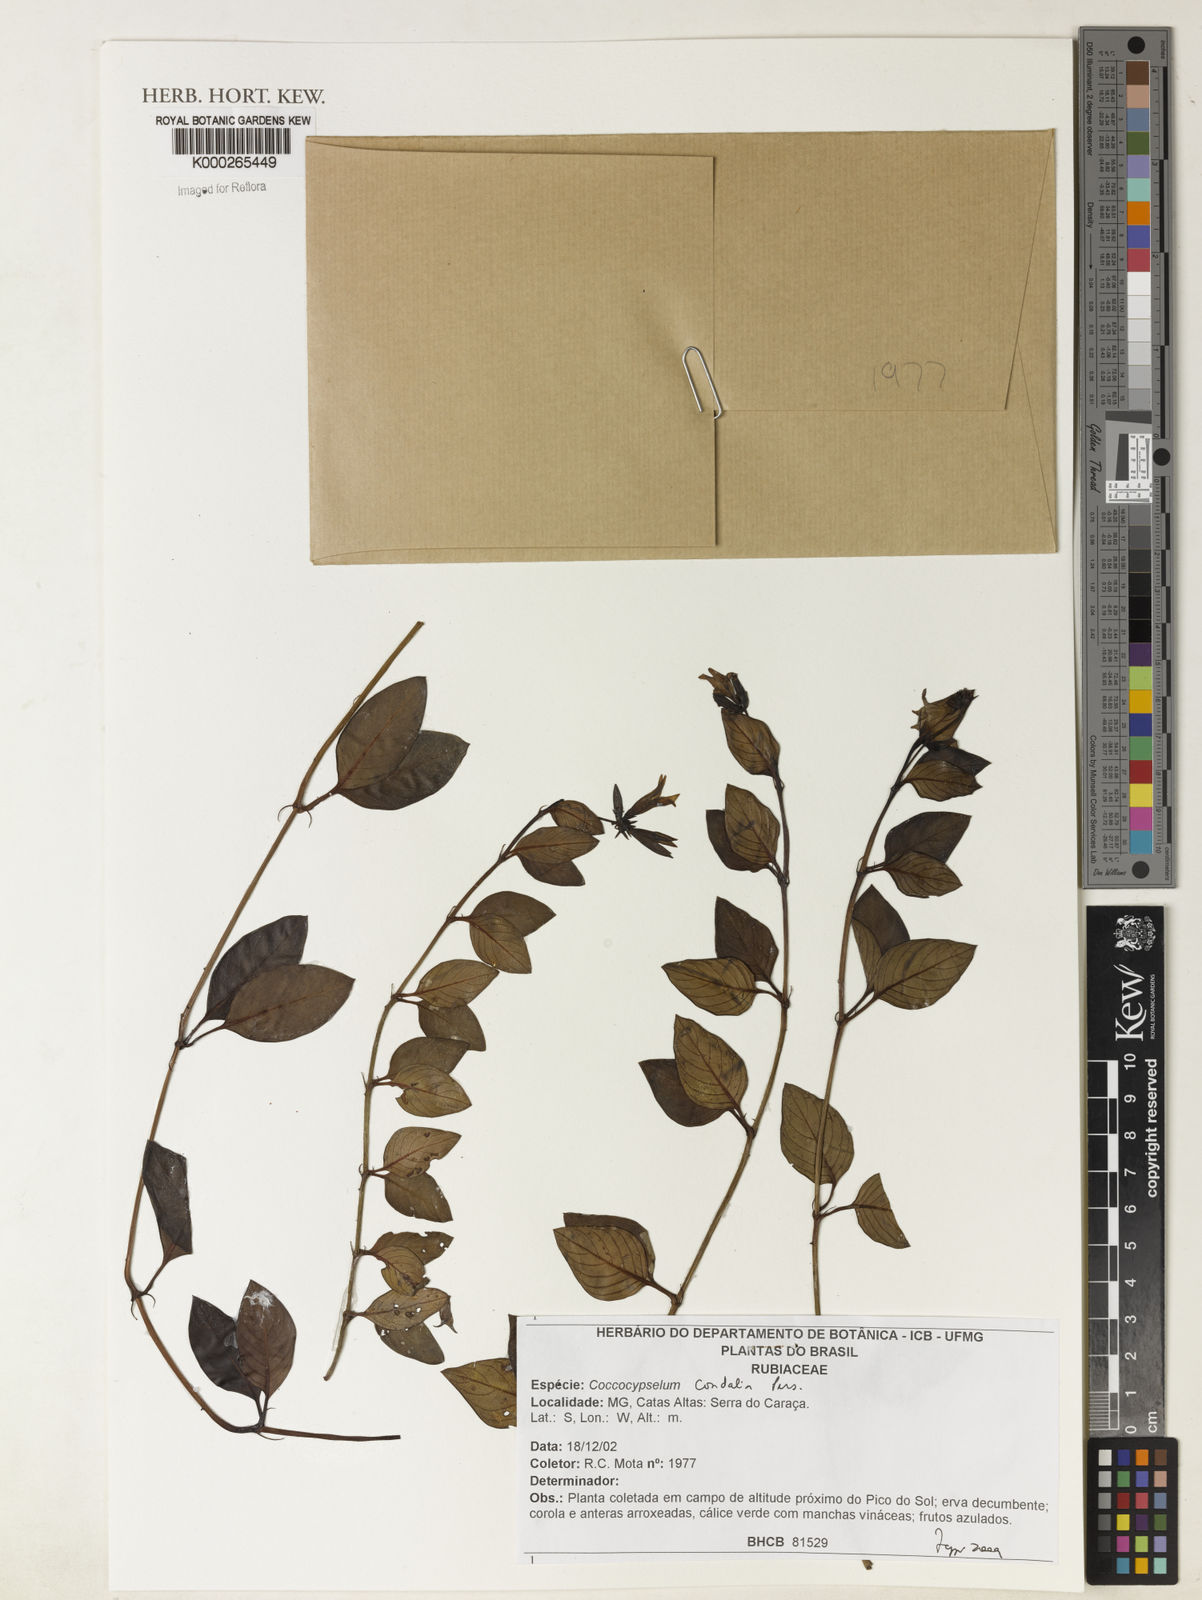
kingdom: Plantae
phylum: Tracheophyta
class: Magnoliopsida
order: Gentianales
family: Rubiaceae
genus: Coccocypselum
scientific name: Coccocypselum condalia
